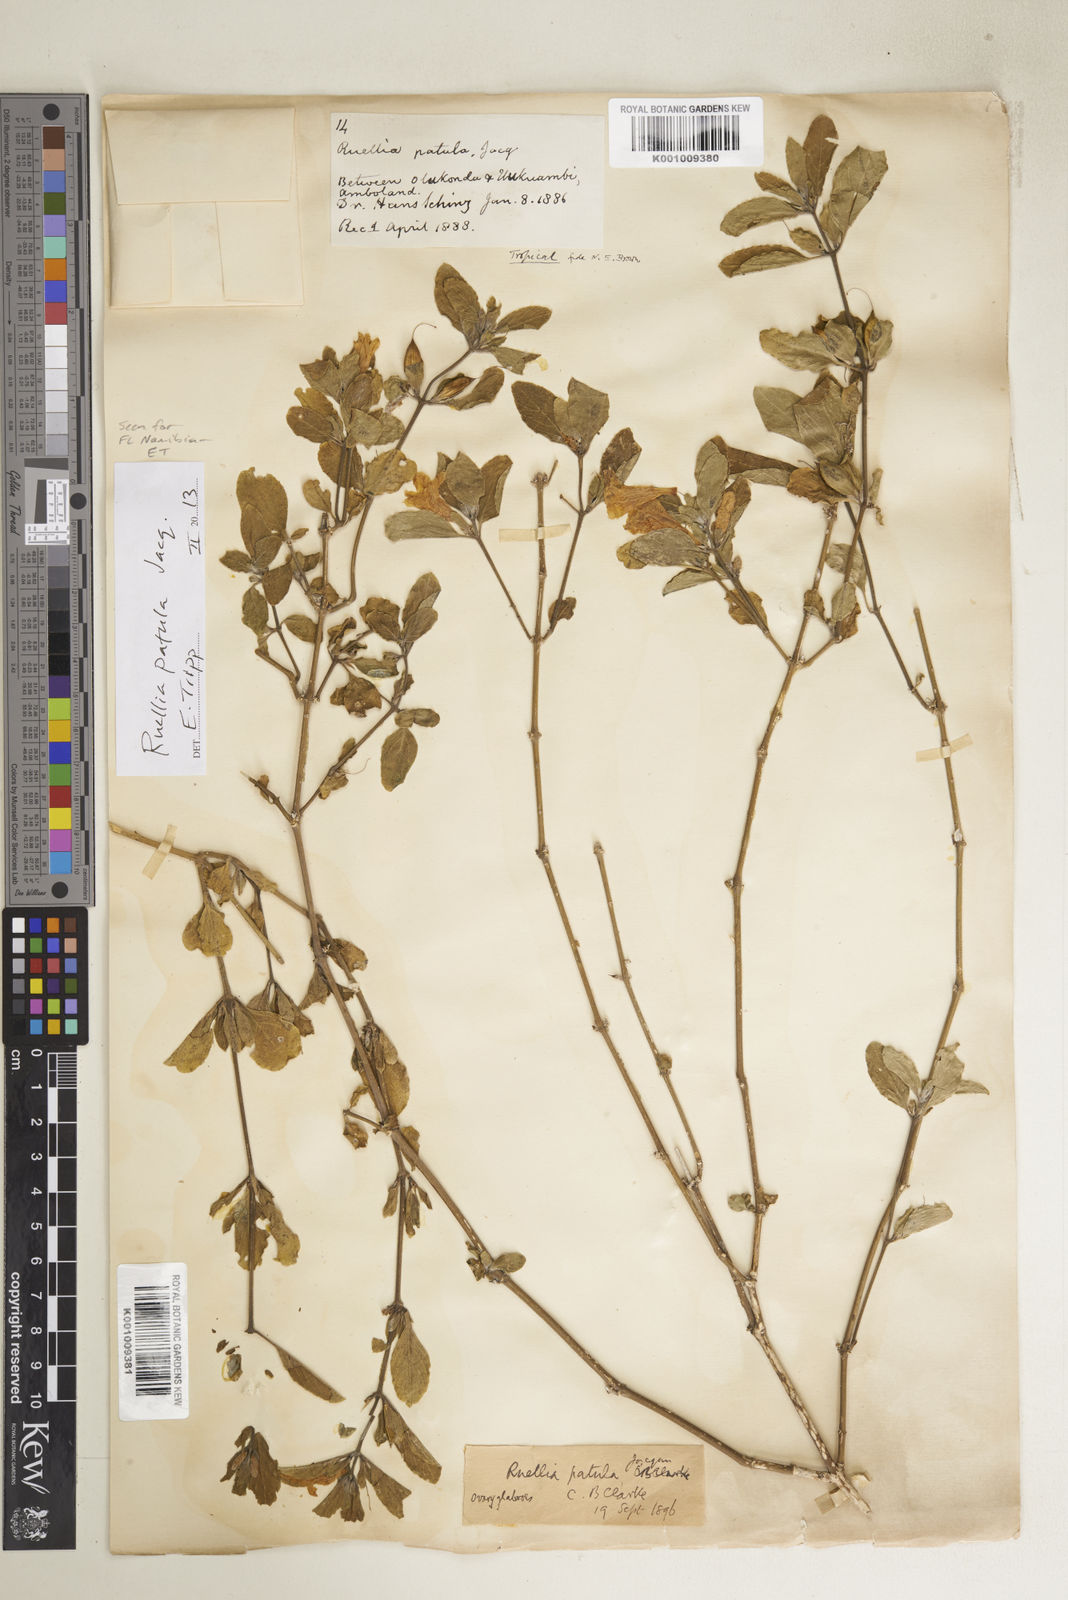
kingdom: Plantae
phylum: Tracheophyta
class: Magnoliopsida
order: Lamiales
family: Acanthaceae
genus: Ruellia
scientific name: Ruellia patula
